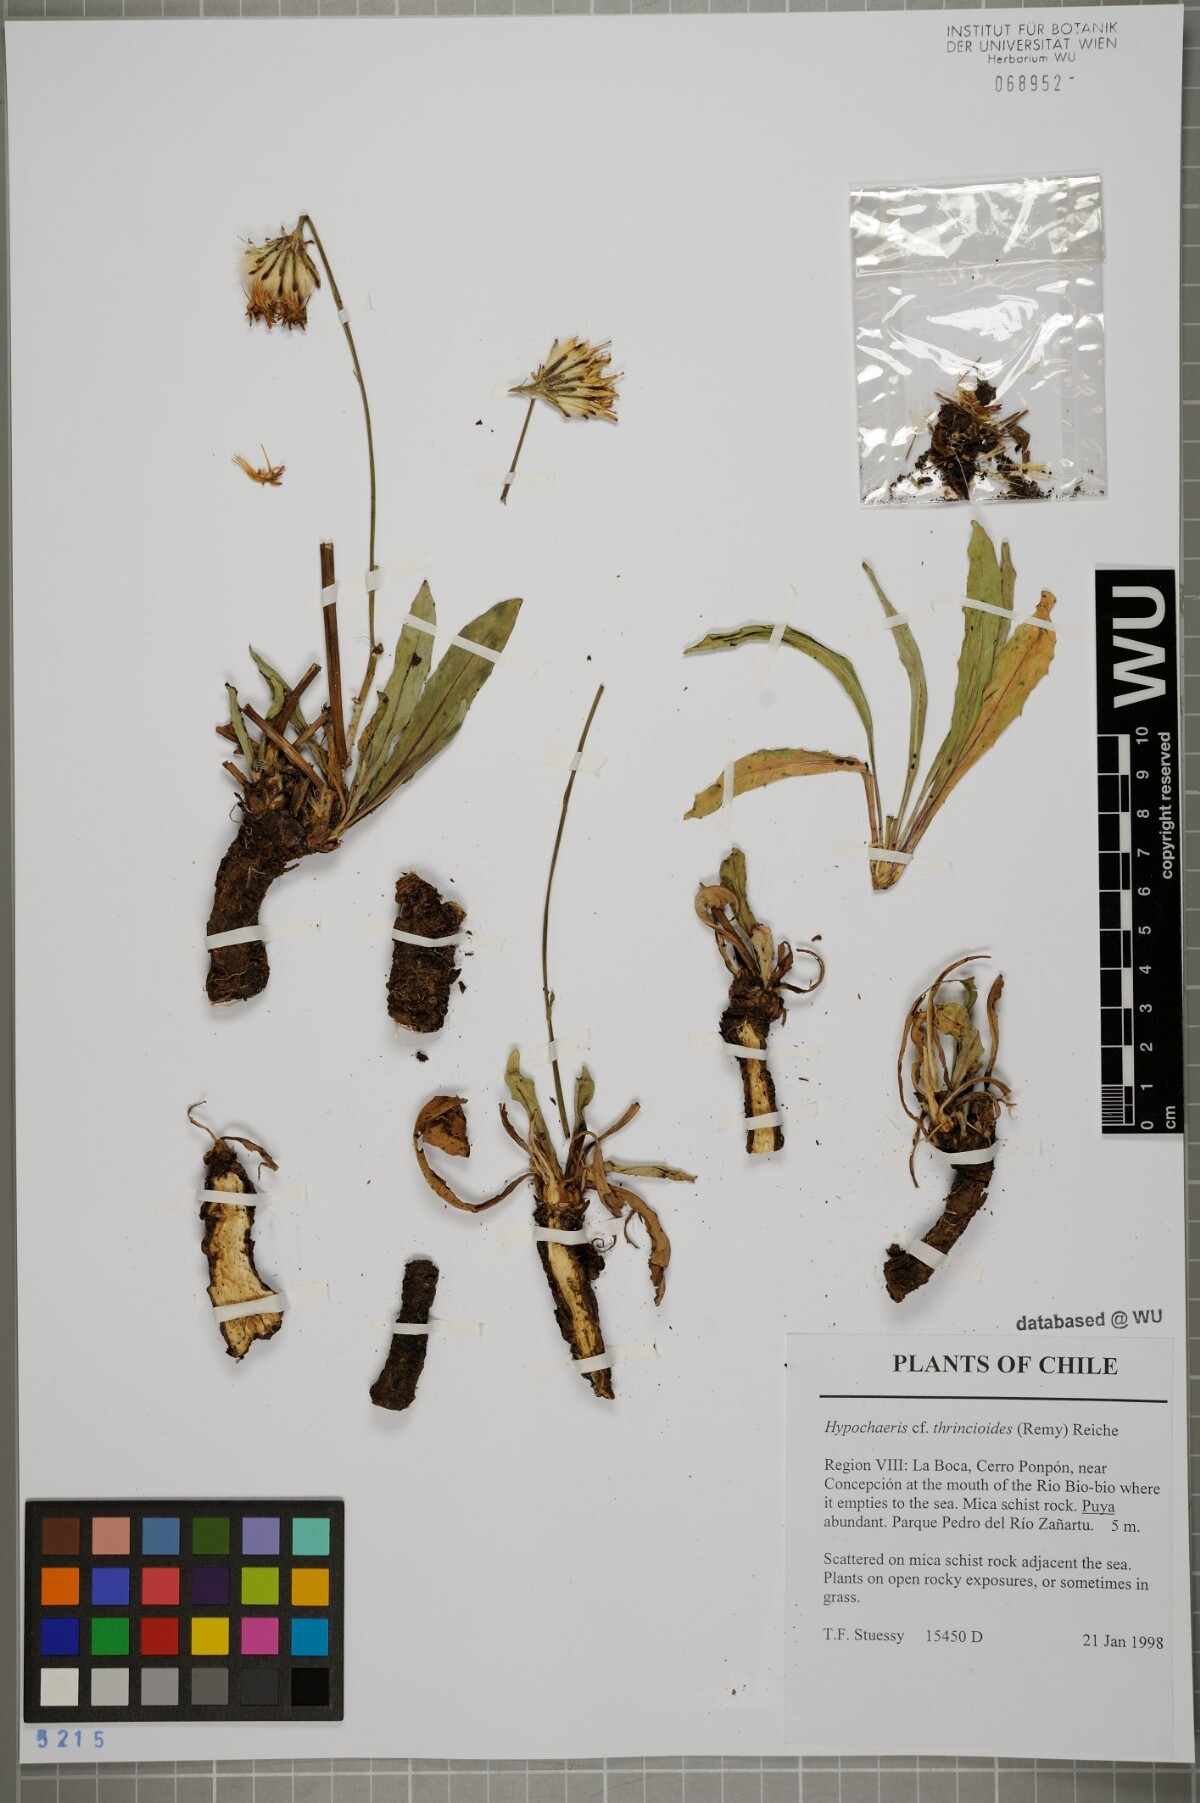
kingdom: Plantae
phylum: Tracheophyta
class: Magnoliopsida
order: Asterales
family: Asteraceae
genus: Hypochaeris
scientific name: Hypochaeris apargioides
